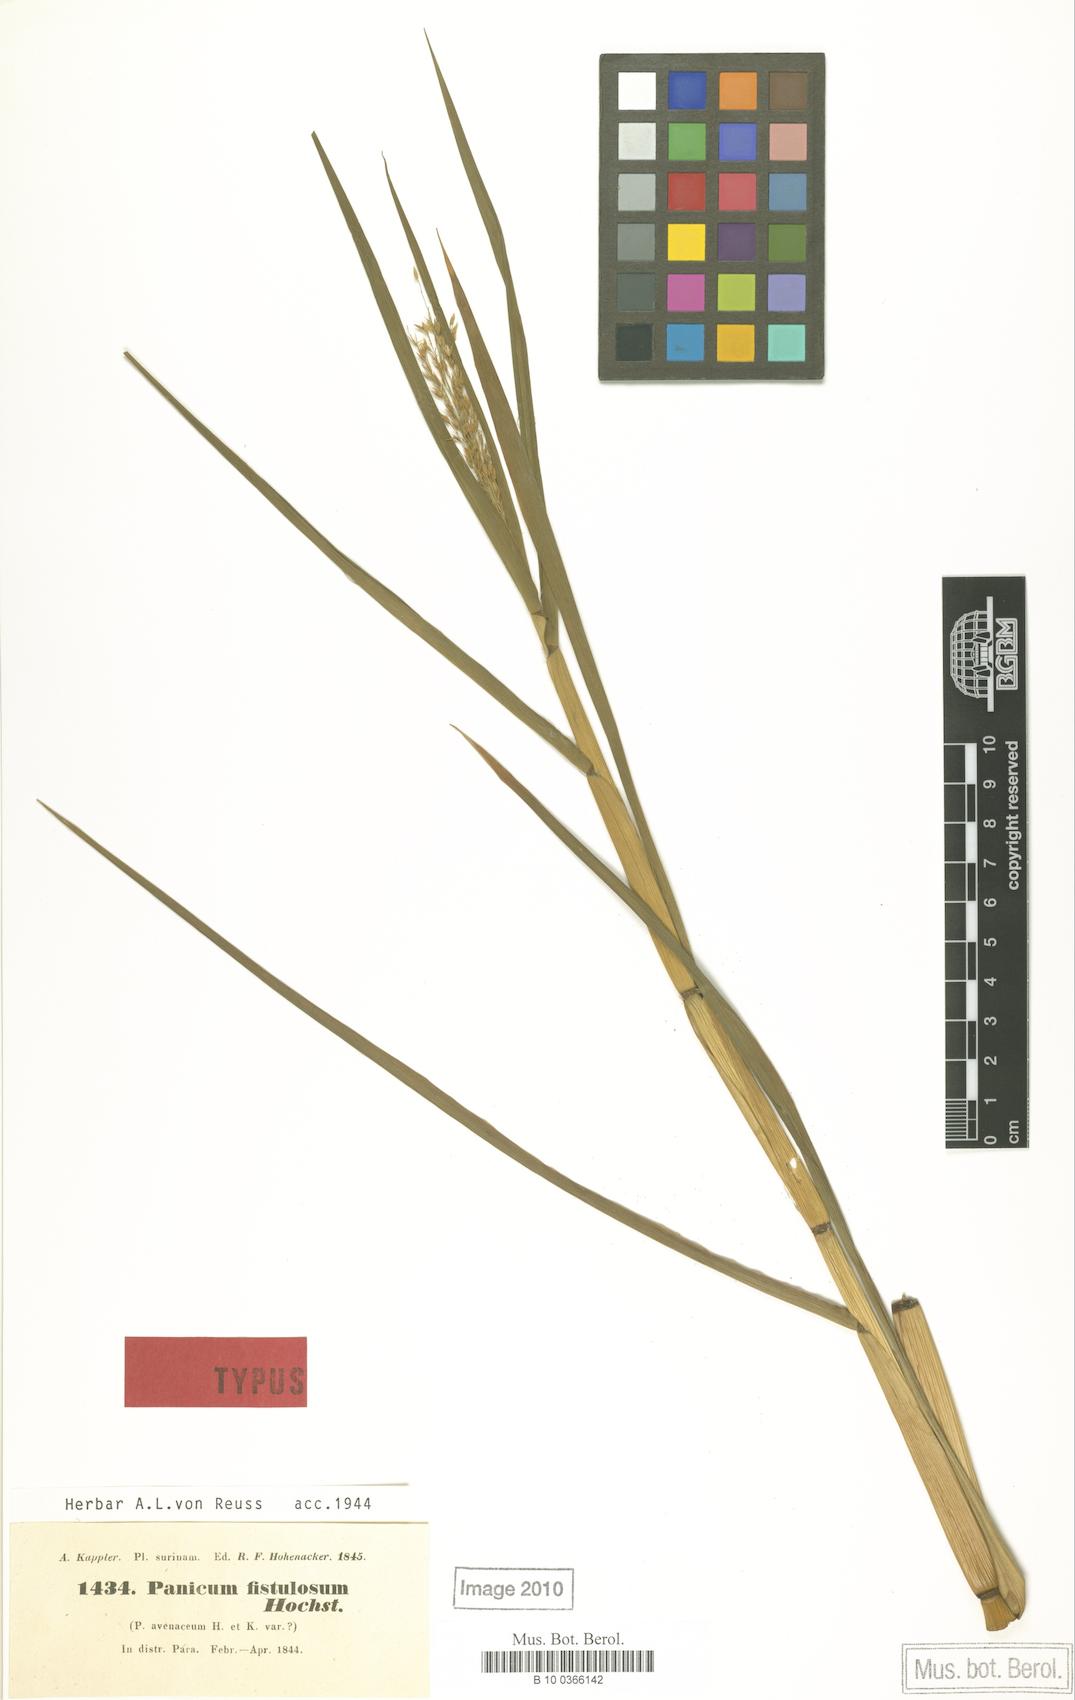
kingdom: Plantae
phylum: Tracheophyta
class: Liliopsida
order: Poales
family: Poaceae
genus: Louisiella
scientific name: Louisiella elephantipes
